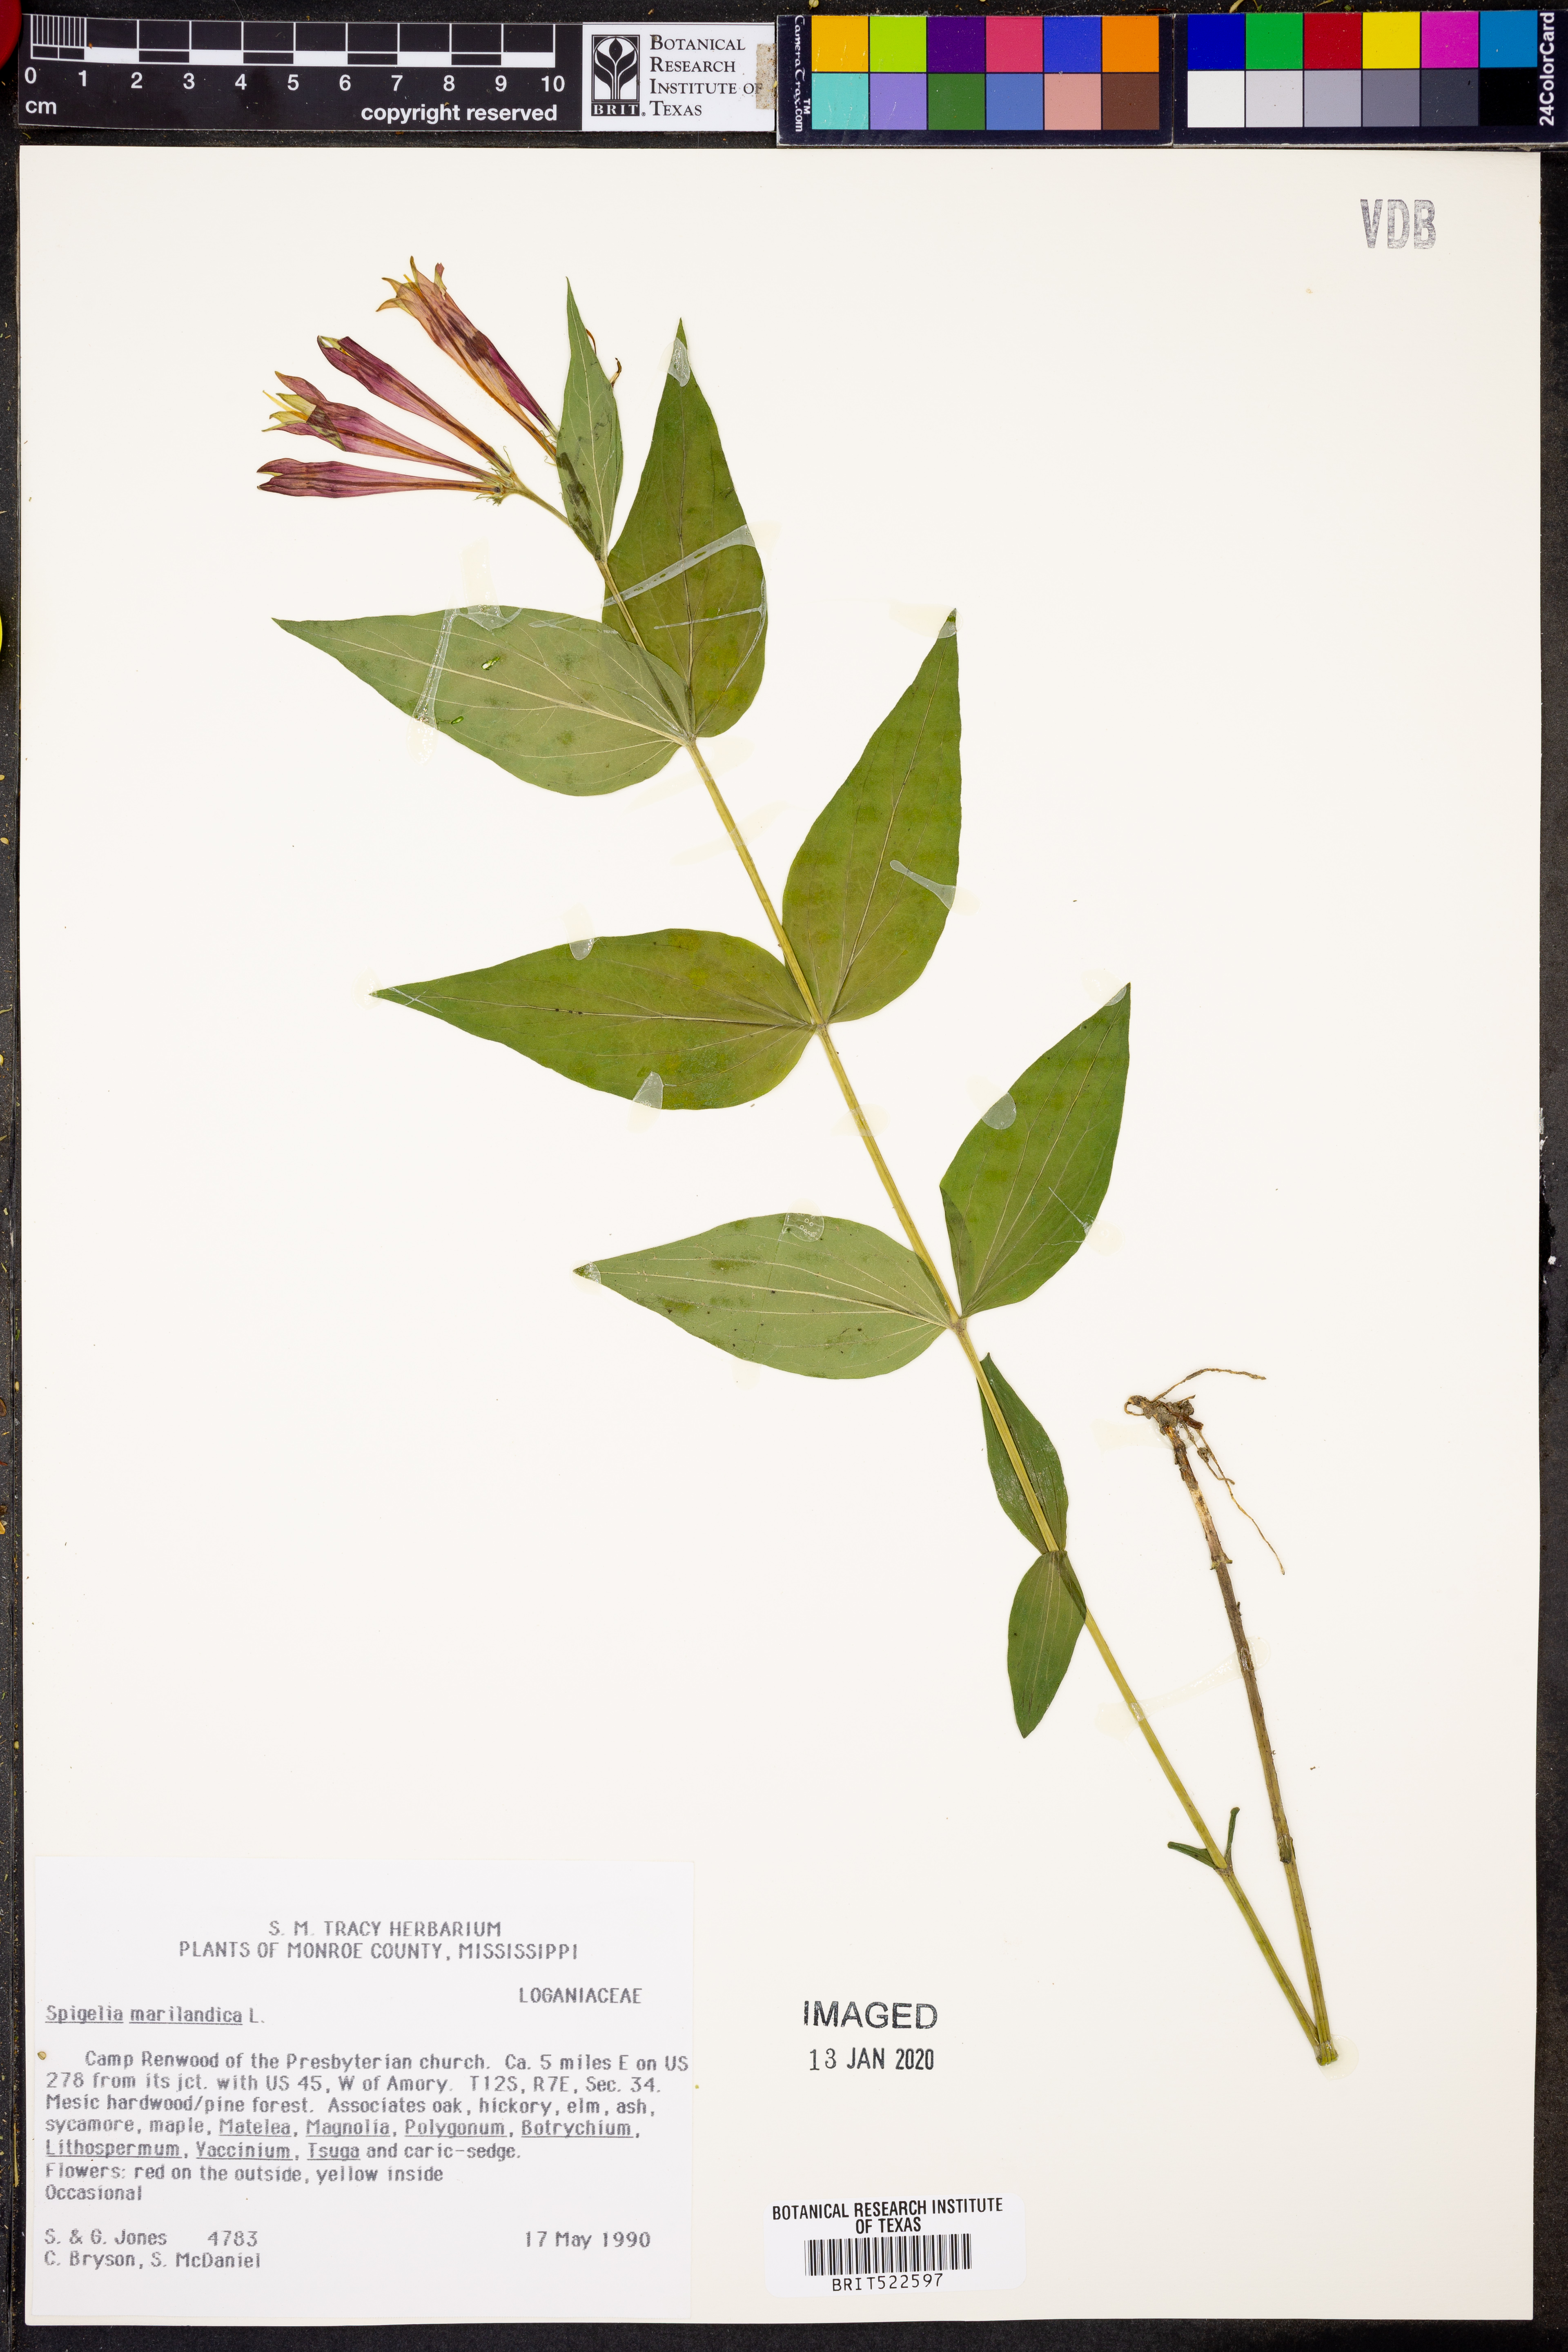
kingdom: Plantae
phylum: Tracheophyta
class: Magnoliopsida
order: Gentianales
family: Loganiaceae
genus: Spigelia
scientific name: Spigelia marilandica
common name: Indian-pink
